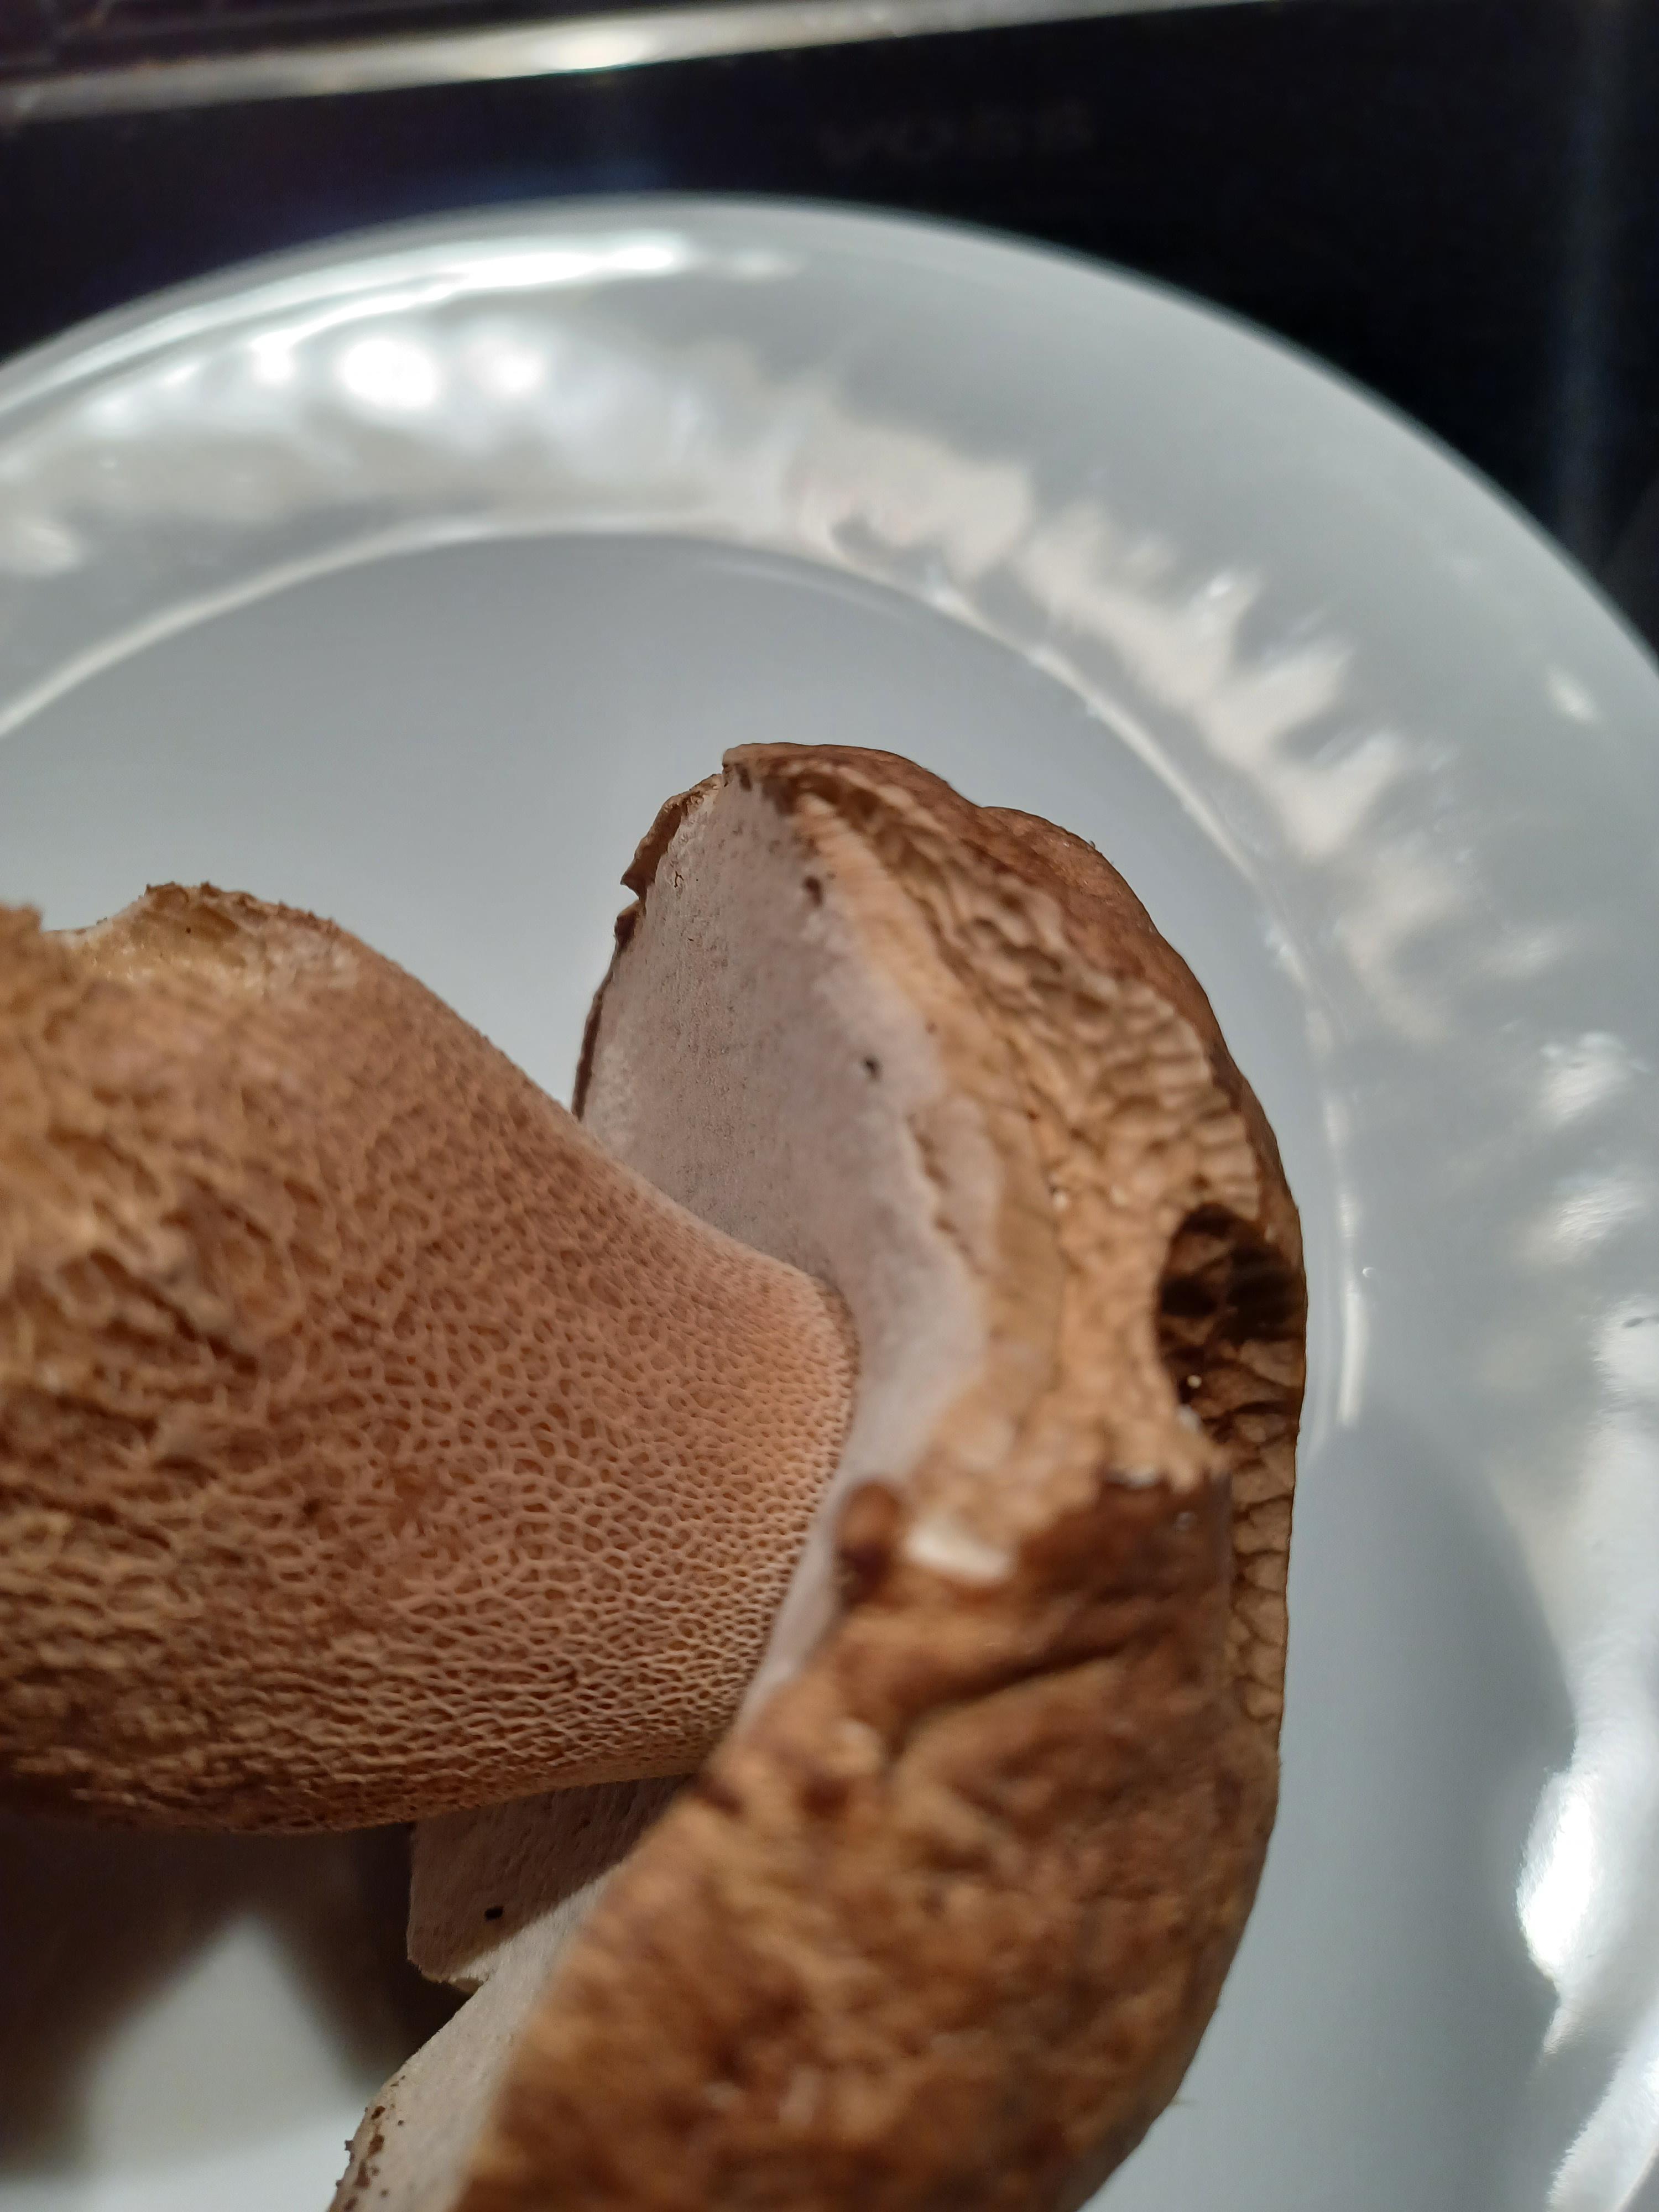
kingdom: Fungi
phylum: Basidiomycota
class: Agaricomycetes
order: Boletales
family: Boletaceae
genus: Boletus
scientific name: Boletus reticulatus
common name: sommer-rørhat
